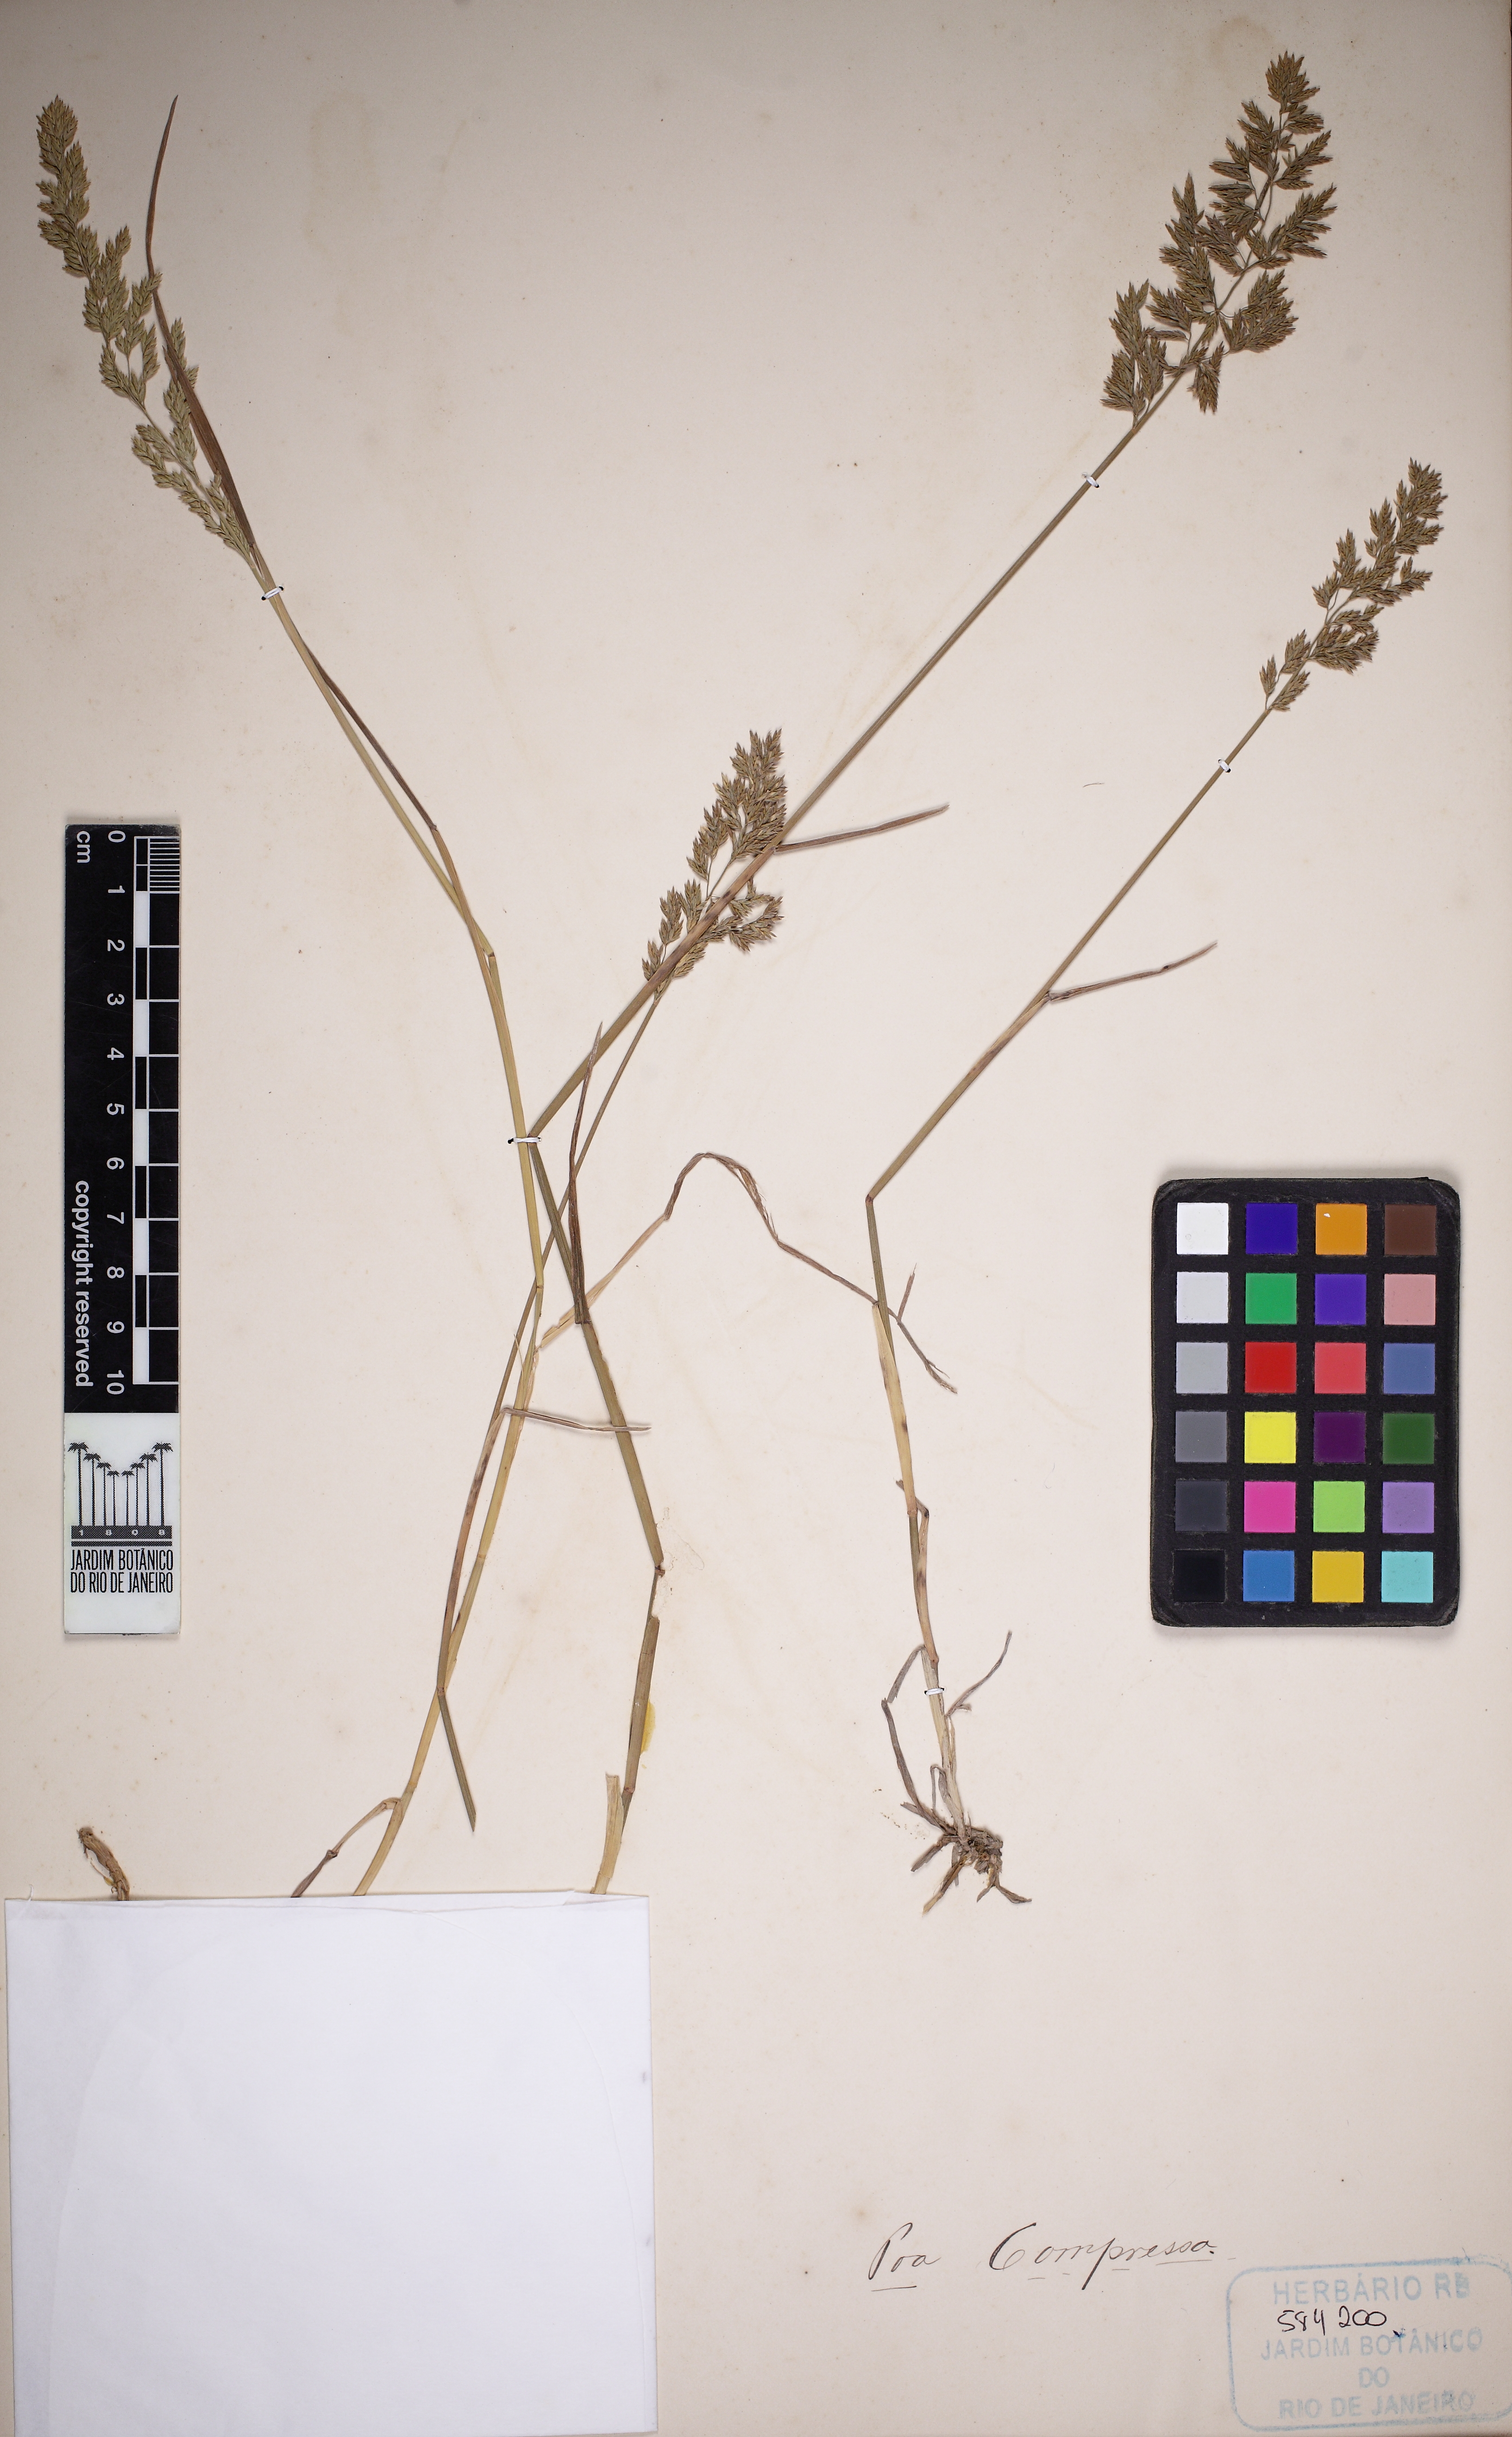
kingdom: Plantae
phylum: Tracheophyta
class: Liliopsida
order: Poales
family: Poaceae
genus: Poa
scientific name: Poa compressa
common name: Canada bluegrass
